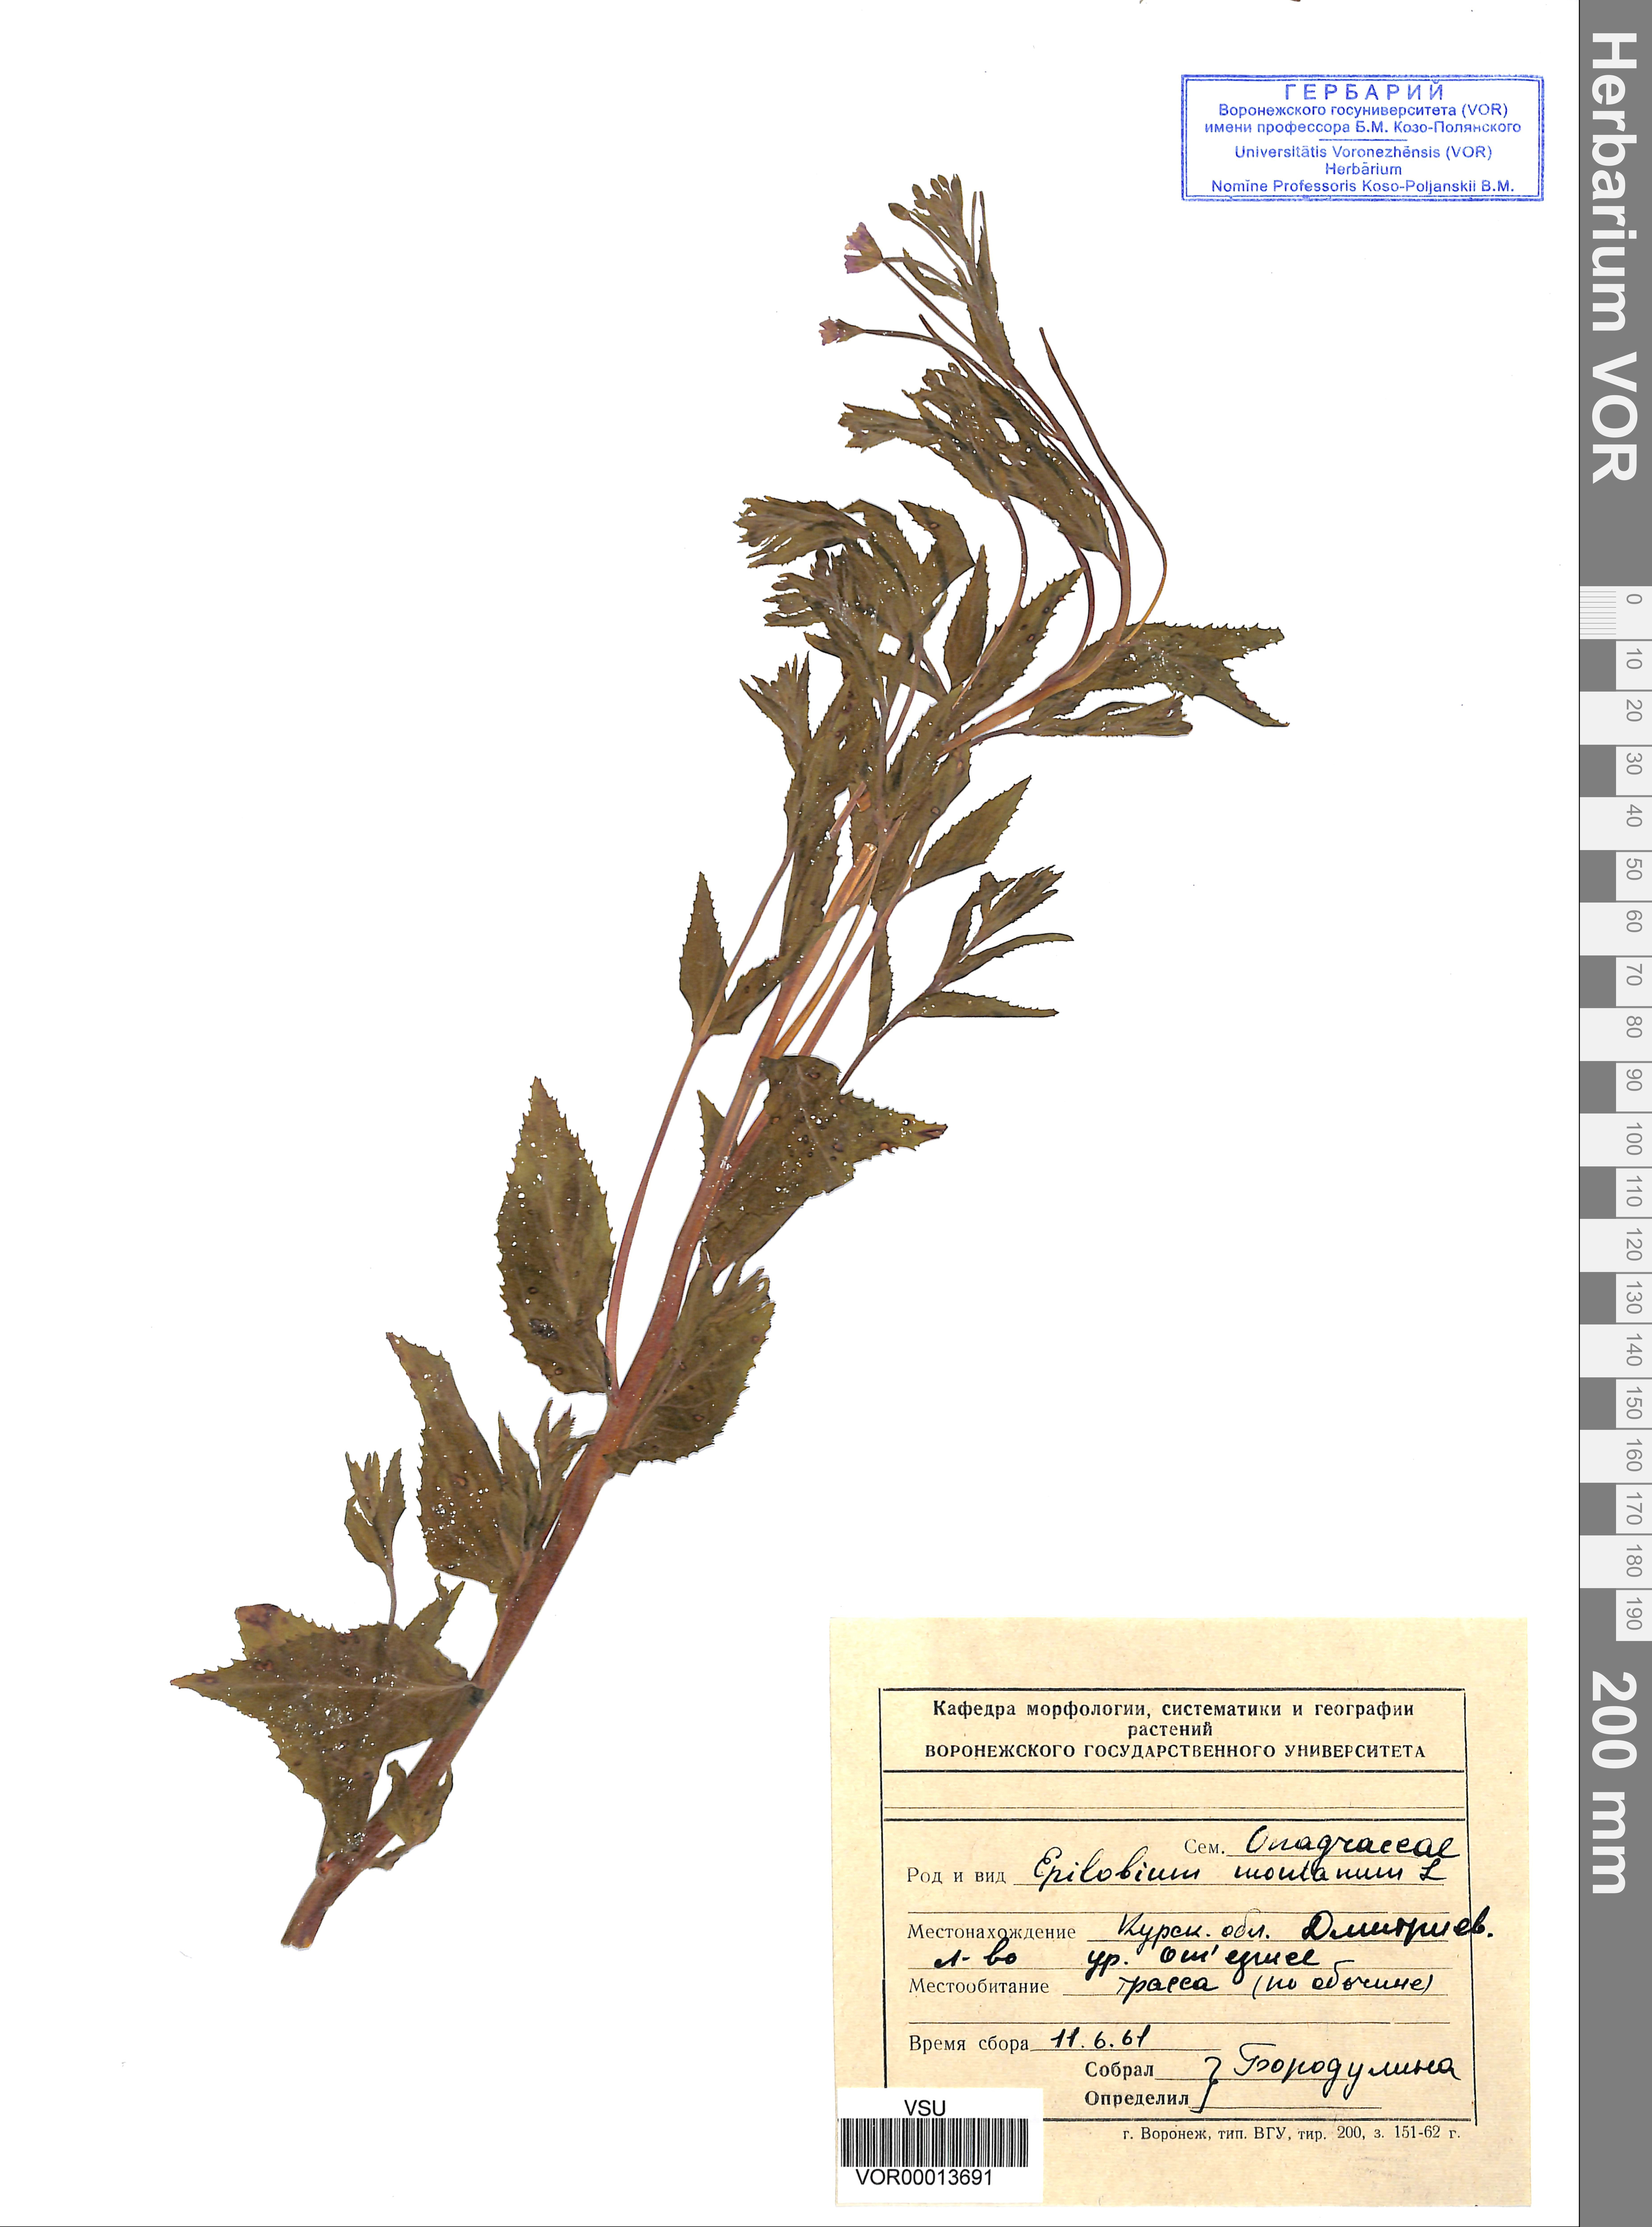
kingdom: Plantae
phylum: Tracheophyta
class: Magnoliopsida
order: Myrtales
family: Onagraceae
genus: Epilobium
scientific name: Epilobium montanum
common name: Broad-leaved willowherb
